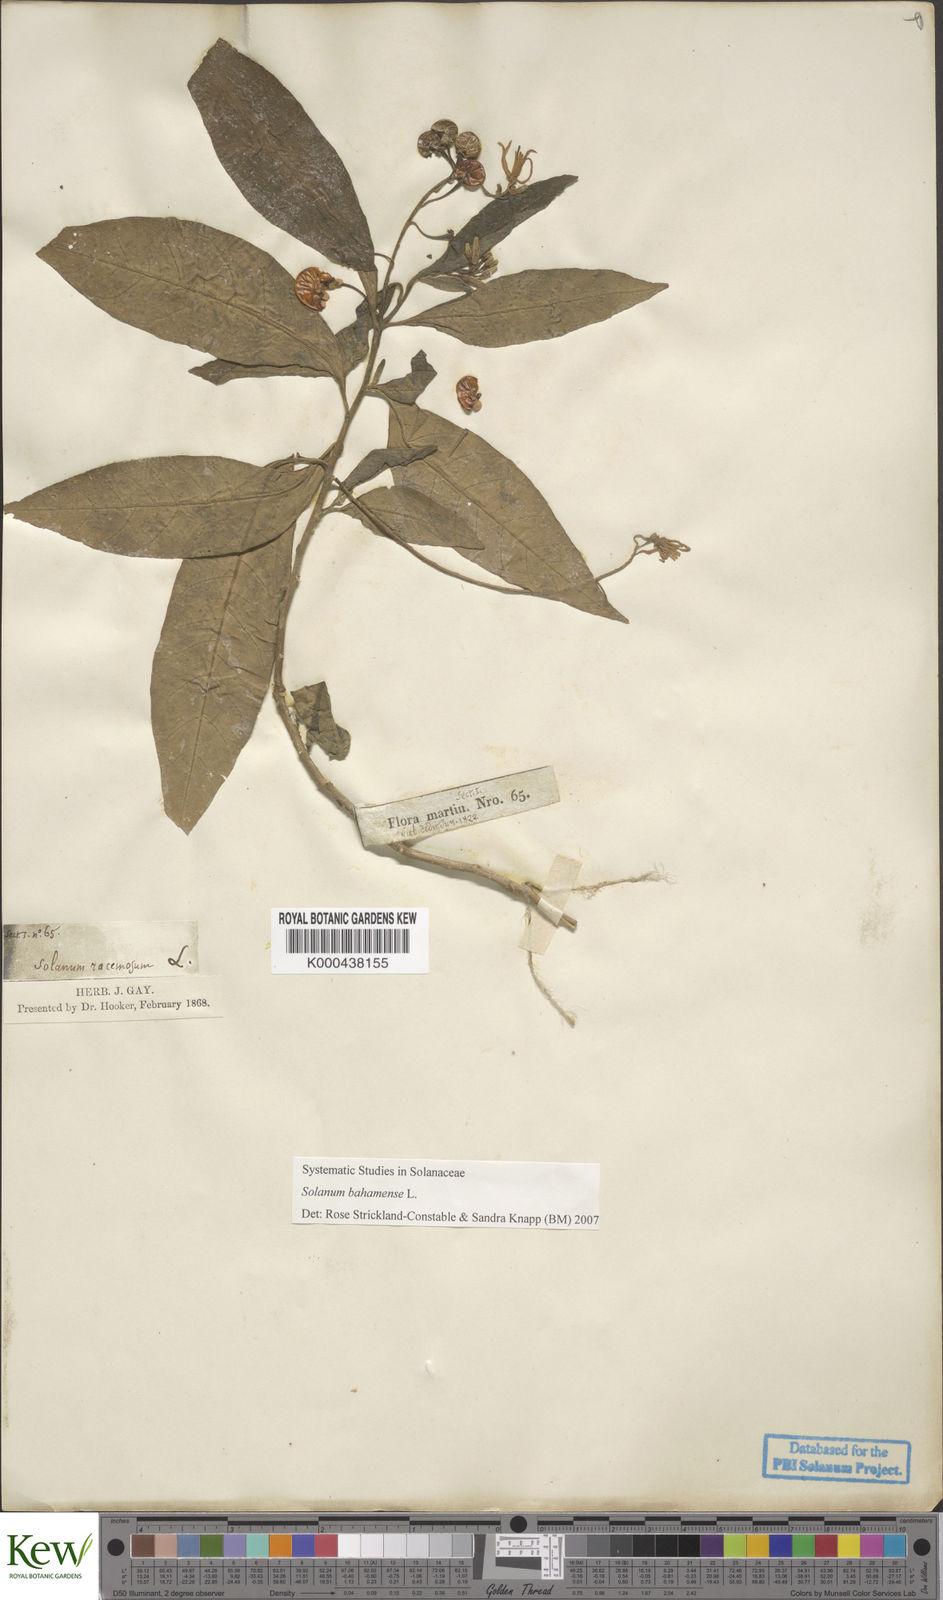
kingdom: Plantae
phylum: Tracheophyta
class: Magnoliopsida
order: Solanales
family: Solanaceae
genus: Solanum
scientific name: Solanum bahamense
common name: Canker-berry
